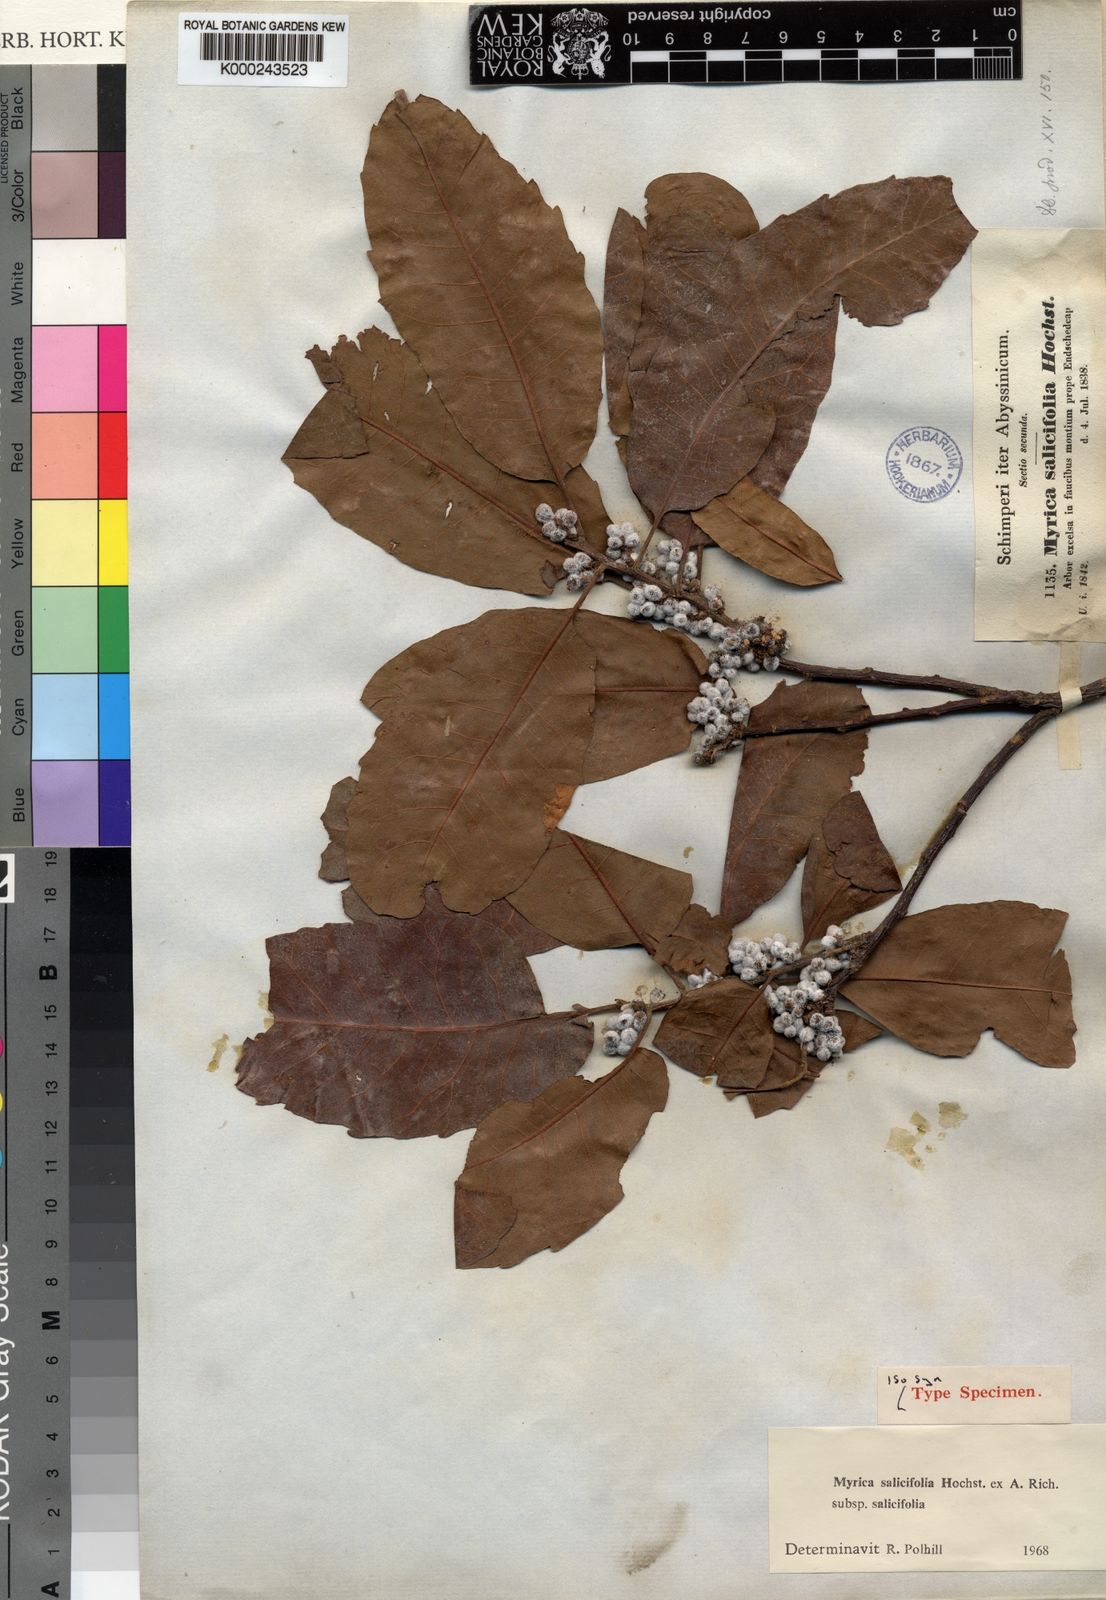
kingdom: Plantae
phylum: Tracheophyta
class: Magnoliopsida
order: Fagales
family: Myricaceae
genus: Morella
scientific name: Morella salicifolia
